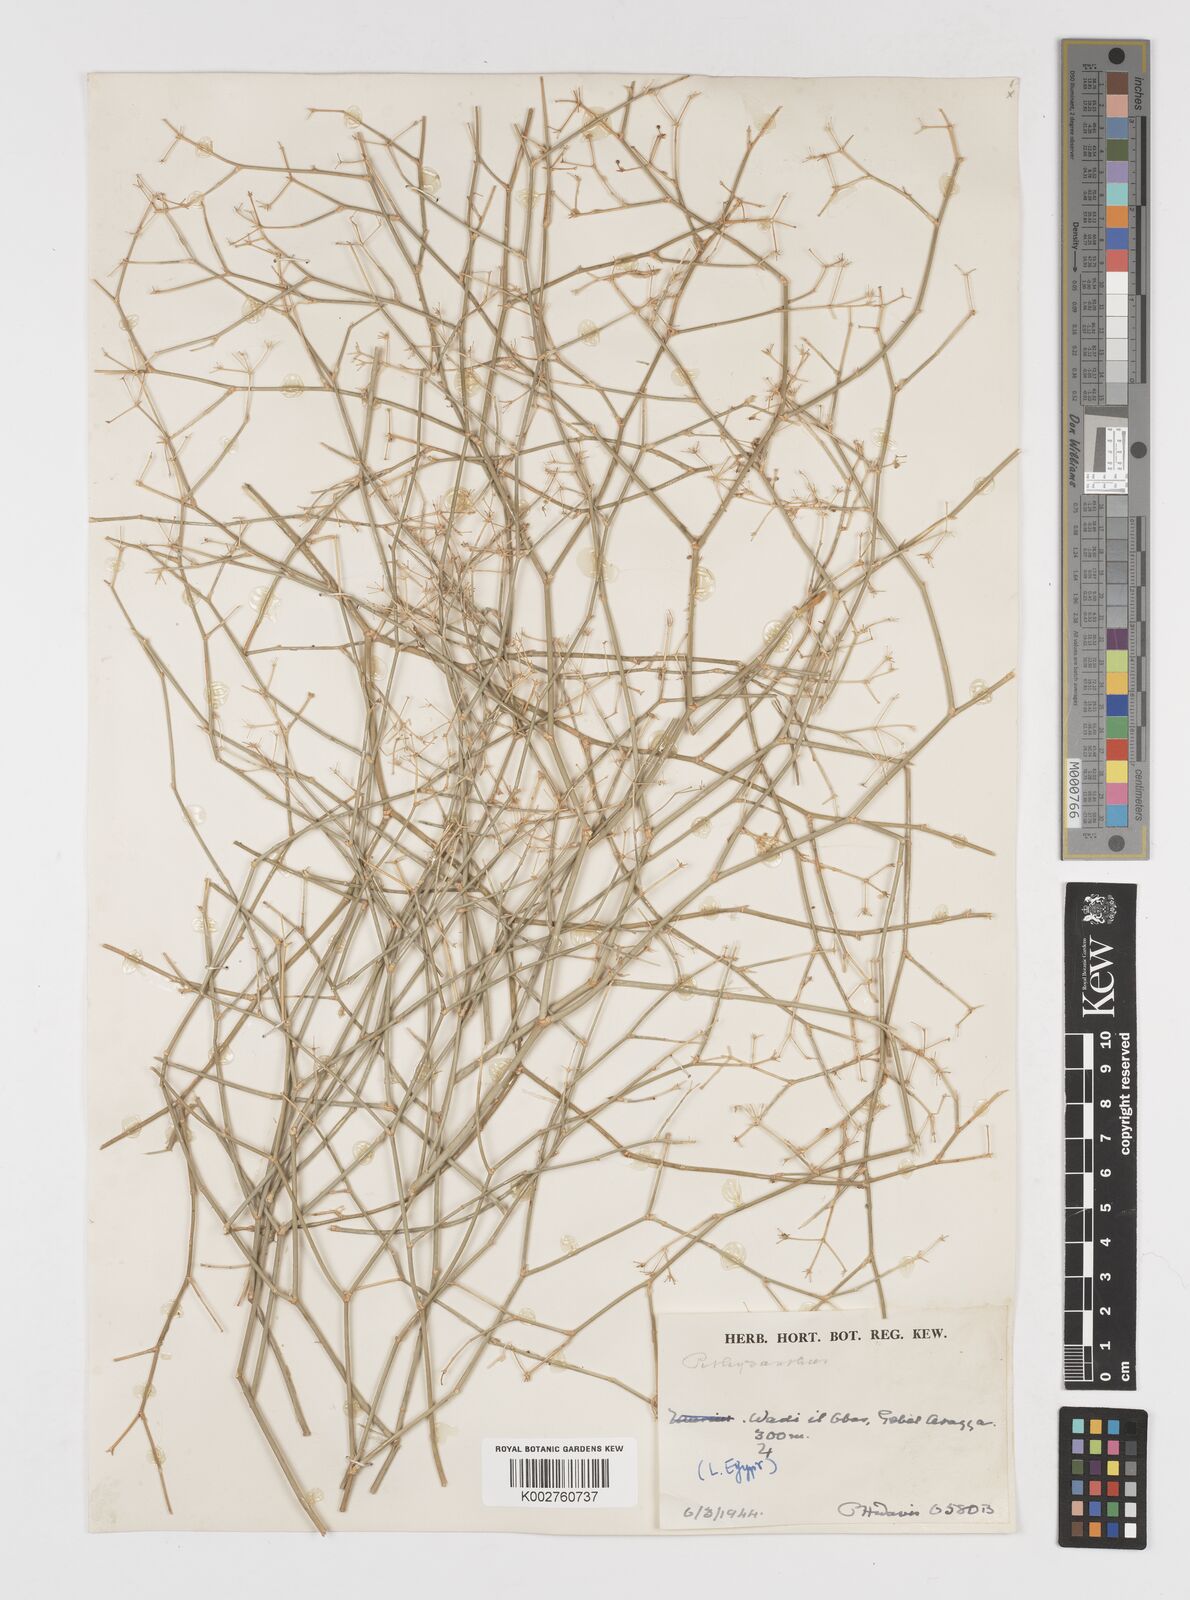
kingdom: Plantae
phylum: Tracheophyta
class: Magnoliopsida
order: Apiales
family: Apiaceae
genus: Deverra
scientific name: Deverra tortuosa
